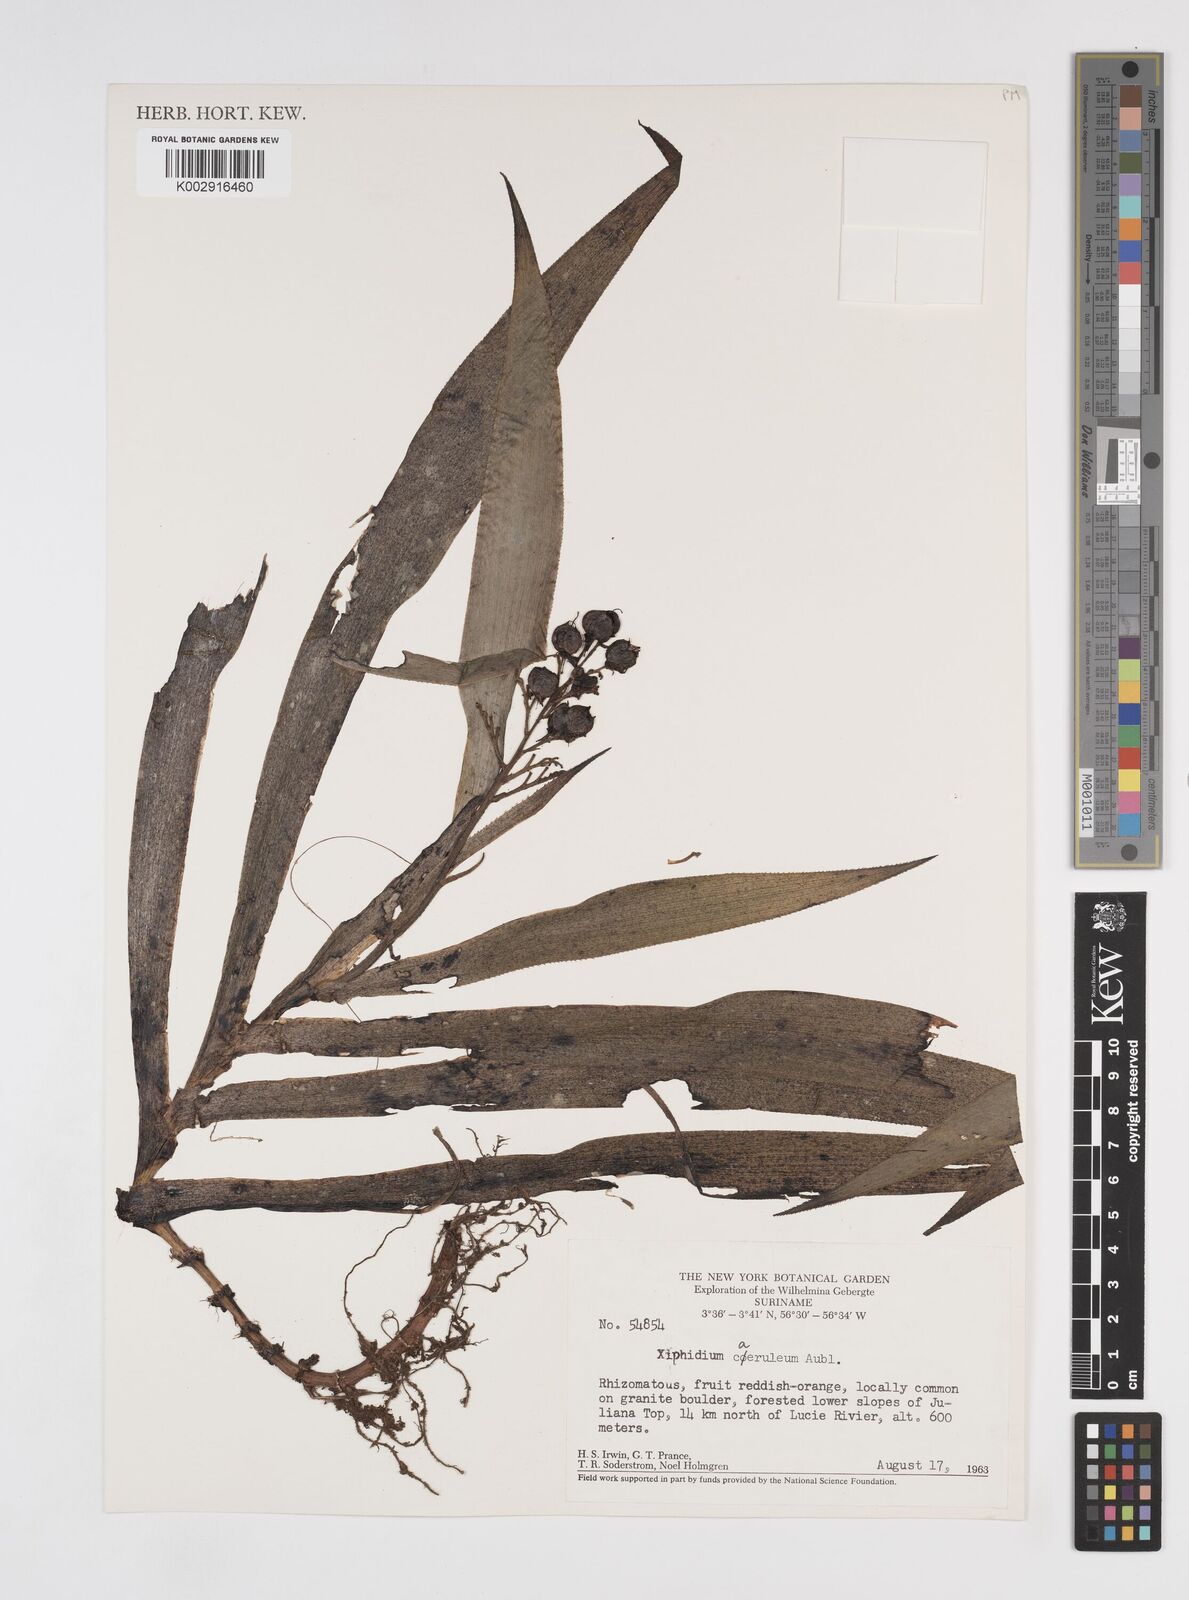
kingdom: Plantae
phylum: Tracheophyta
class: Liliopsida
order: Commelinales
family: Haemodoraceae
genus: Xiphidium
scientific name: Xiphidium caeruleum
